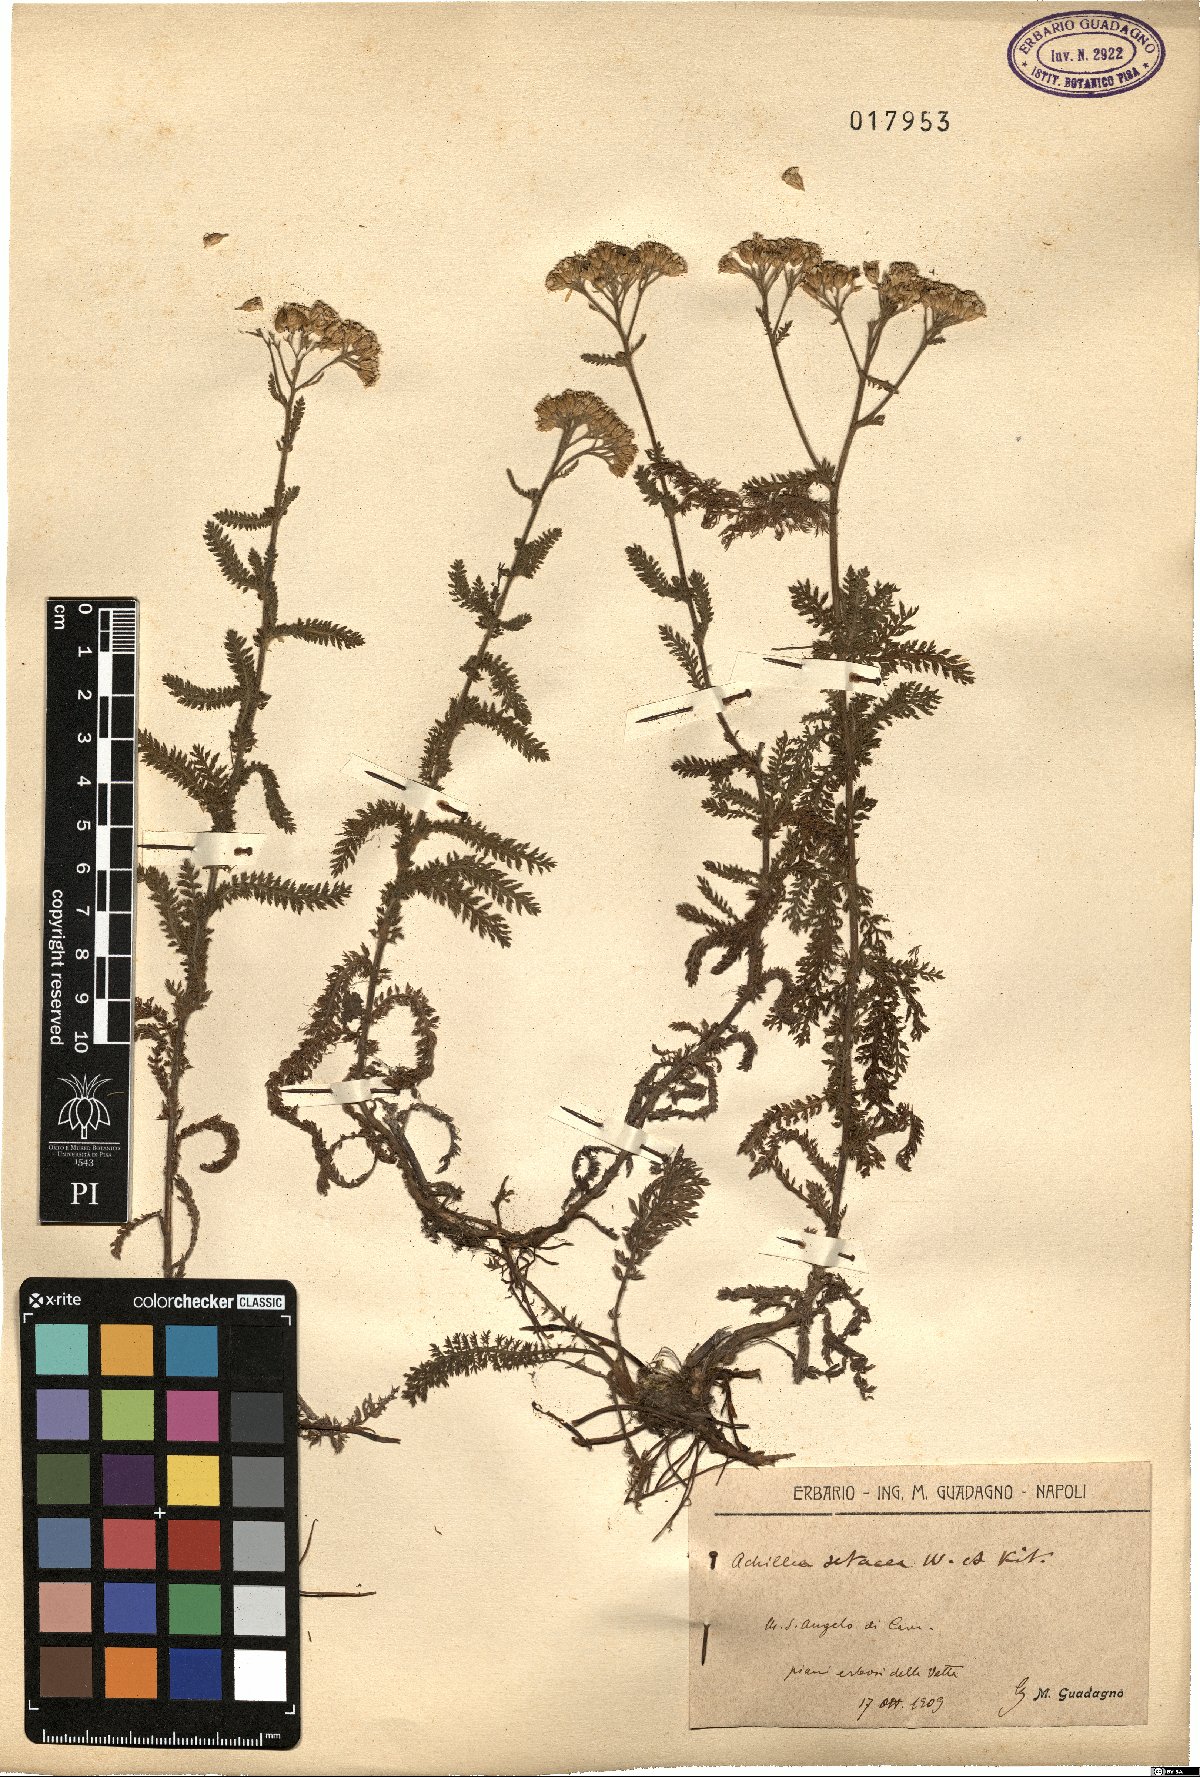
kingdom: Plantae
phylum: Tracheophyta
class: Magnoliopsida
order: Asterales
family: Asteraceae
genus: Achillea
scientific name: Achillea setacea
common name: Bristly yarrow
